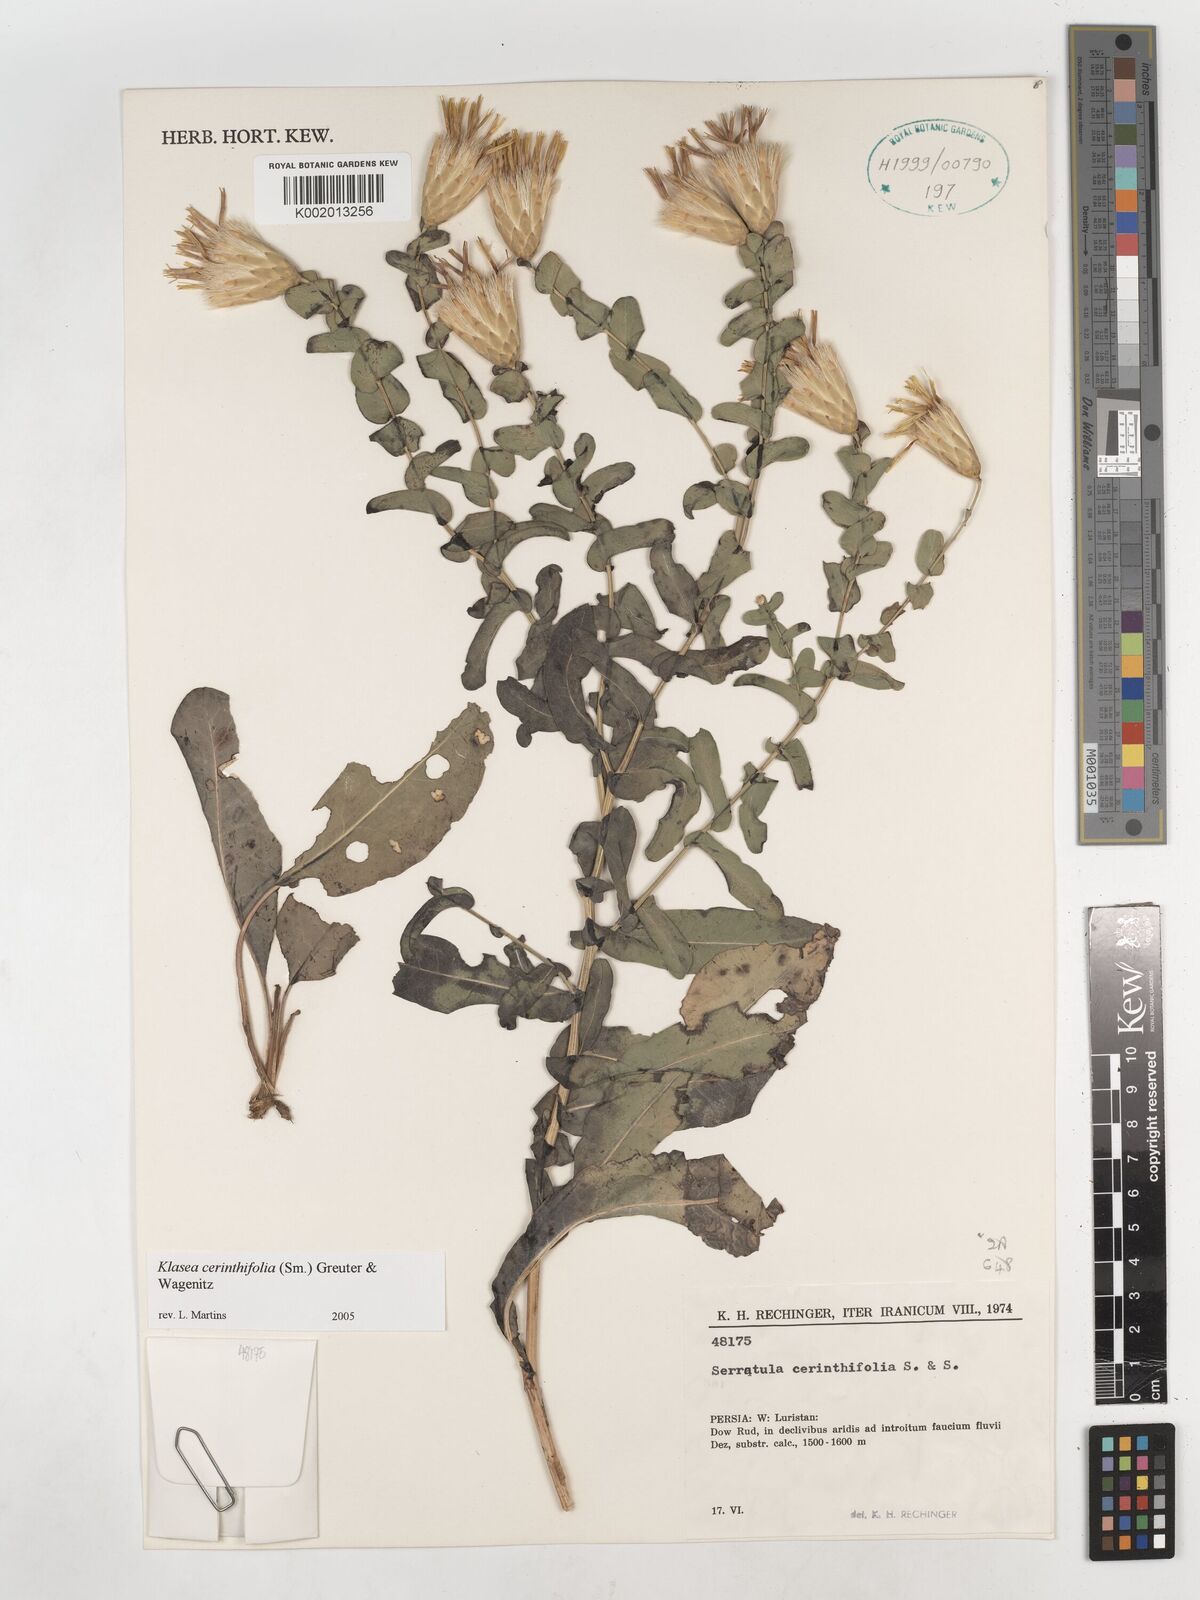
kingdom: Plantae
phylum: Tracheophyta
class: Magnoliopsida
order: Asterales
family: Asteraceae
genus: Klasea
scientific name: Klasea cerinthifolia
